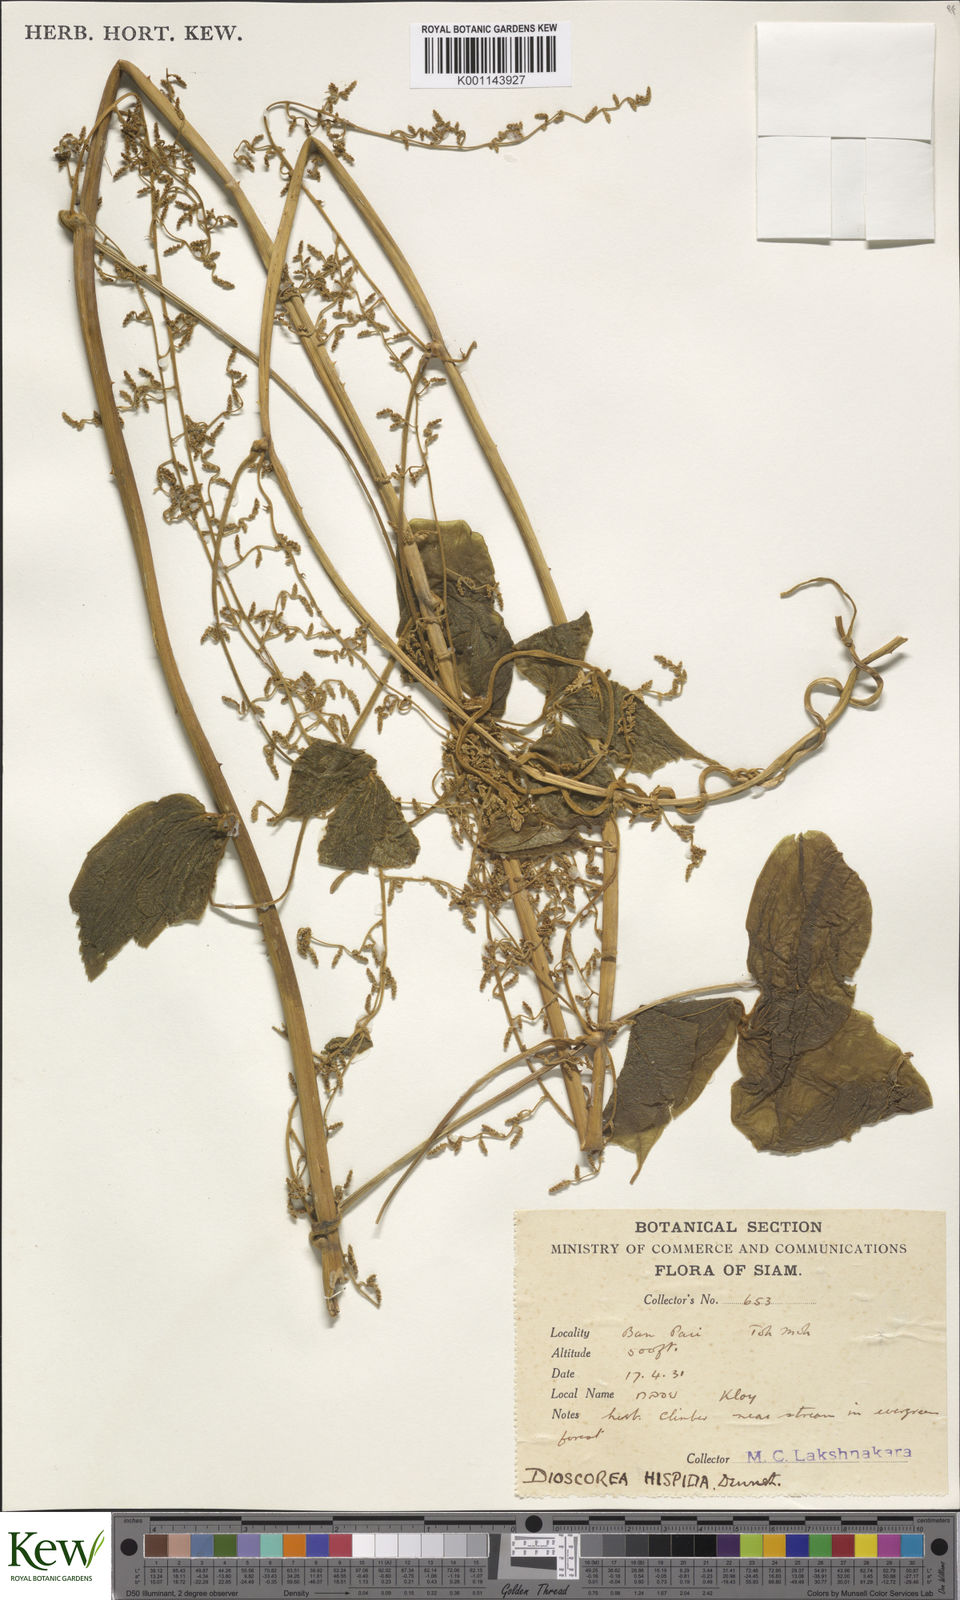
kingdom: Plantae
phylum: Tracheophyta
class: Liliopsida
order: Dioscoreales
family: Dioscoreaceae
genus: Dioscorea
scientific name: Dioscorea hispida
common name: Asiatic bitter yam
